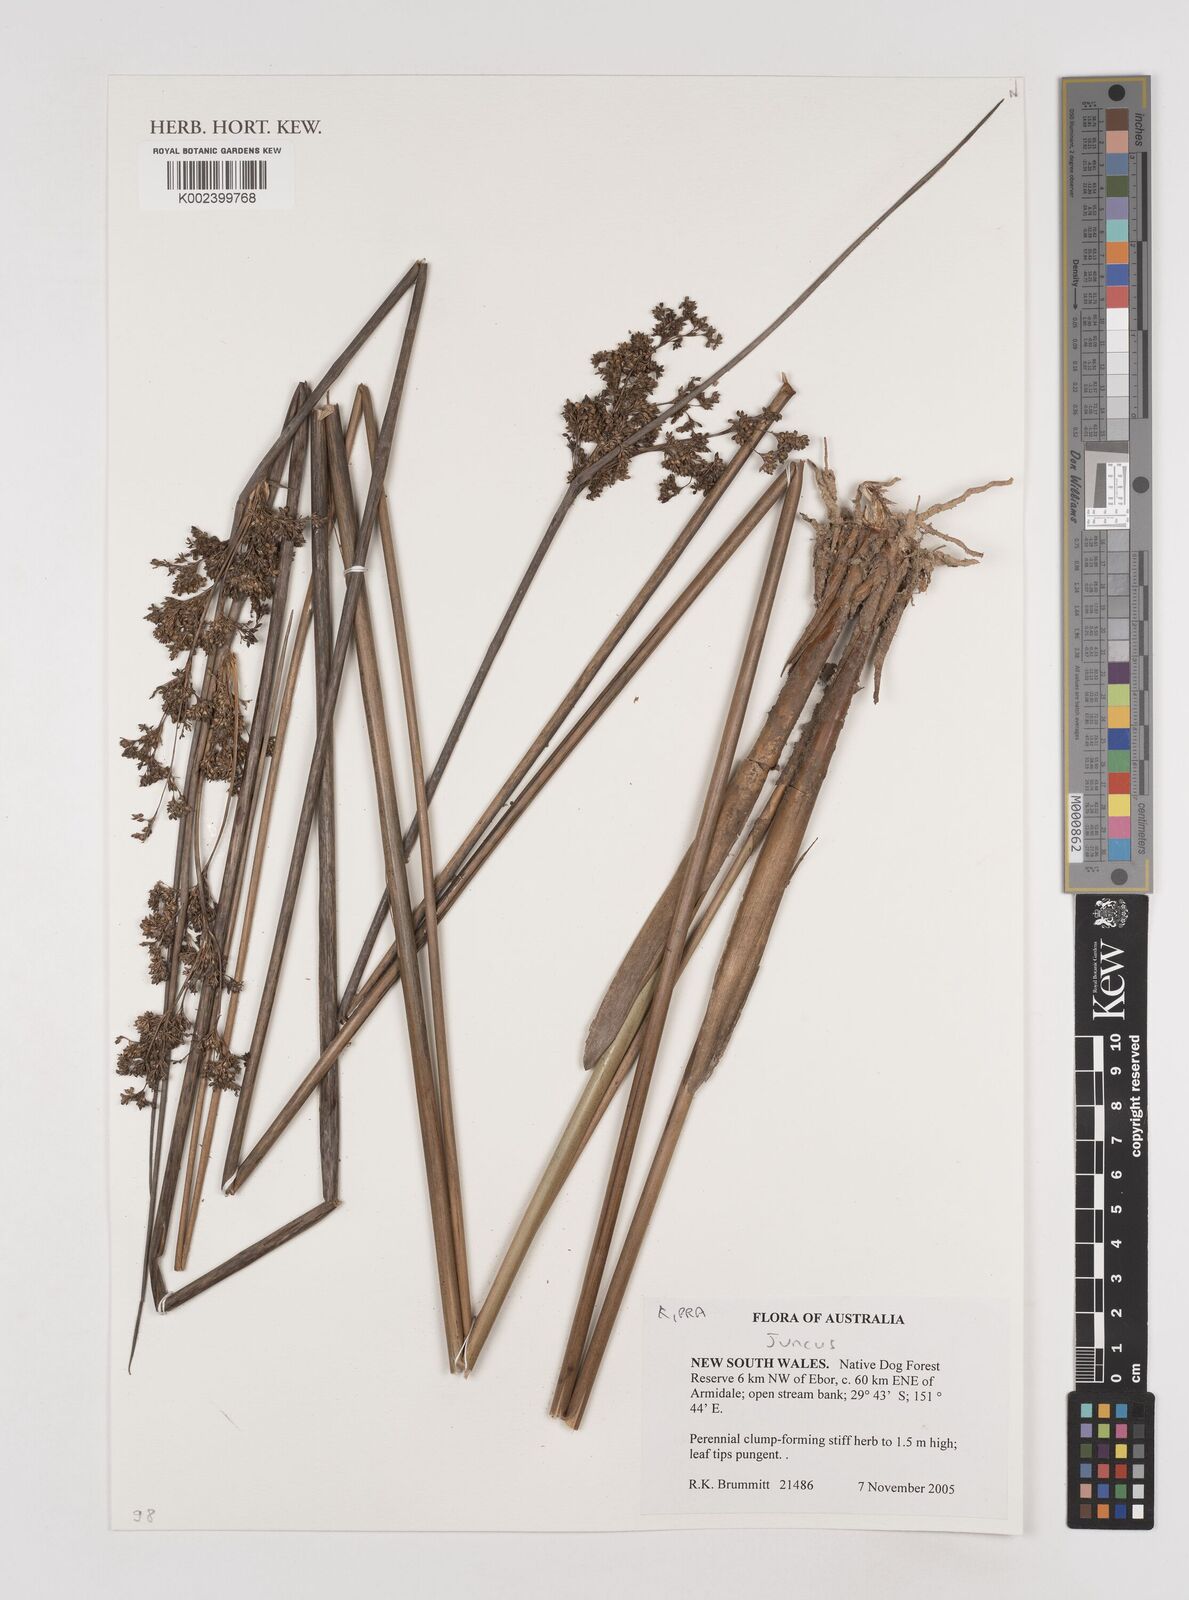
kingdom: Plantae
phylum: Tracheophyta
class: Liliopsida
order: Poales
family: Juncaceae
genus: Juncus
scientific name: Juncus
